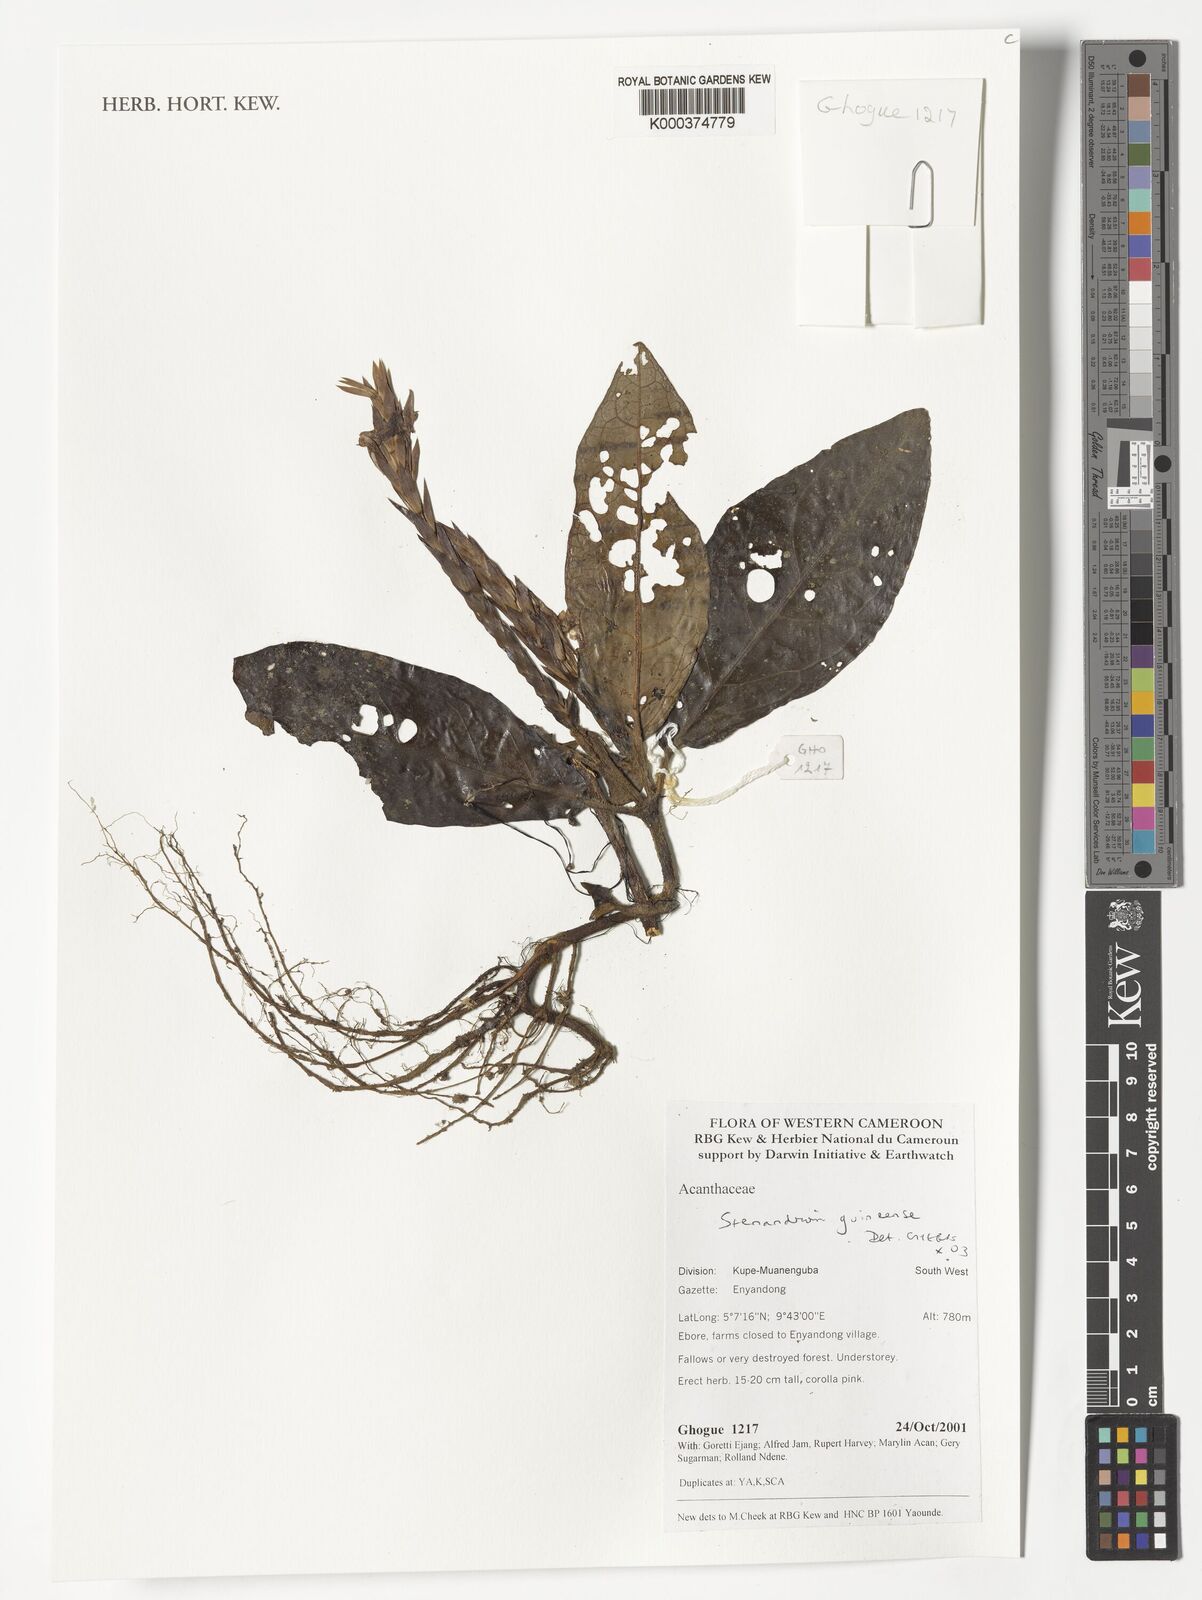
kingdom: Plantae
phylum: Tracheophyta
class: Magnoliopsida
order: Lamiales
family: Acanthaceae
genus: Stenandriopsis
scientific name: Stenandriopsis guineensis
